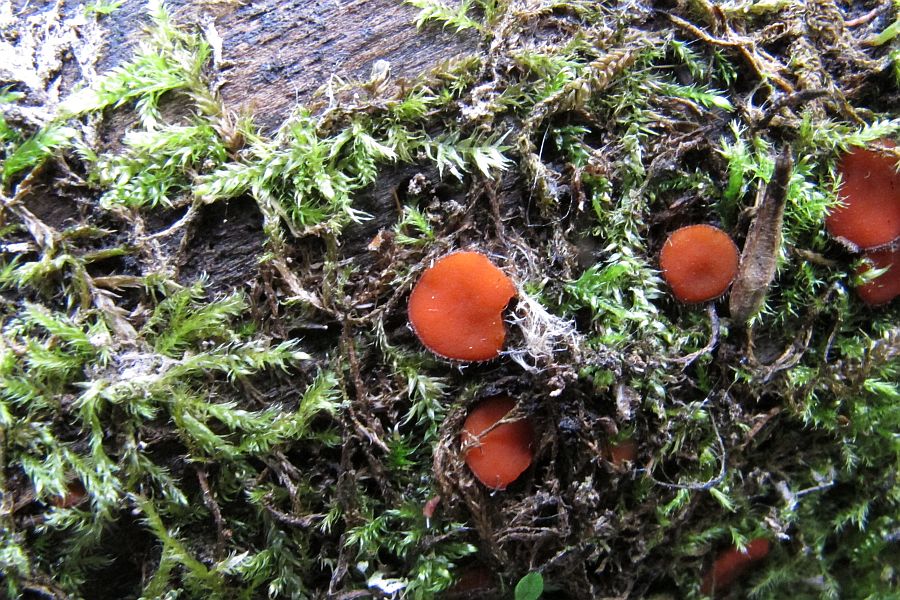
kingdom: Fungi
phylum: Ascomycota
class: Pezizomycetes
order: Pezizales
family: Pyronemataceae
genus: Scutellinia
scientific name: Scutellinia scutellata
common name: frynset skjoldbæger
